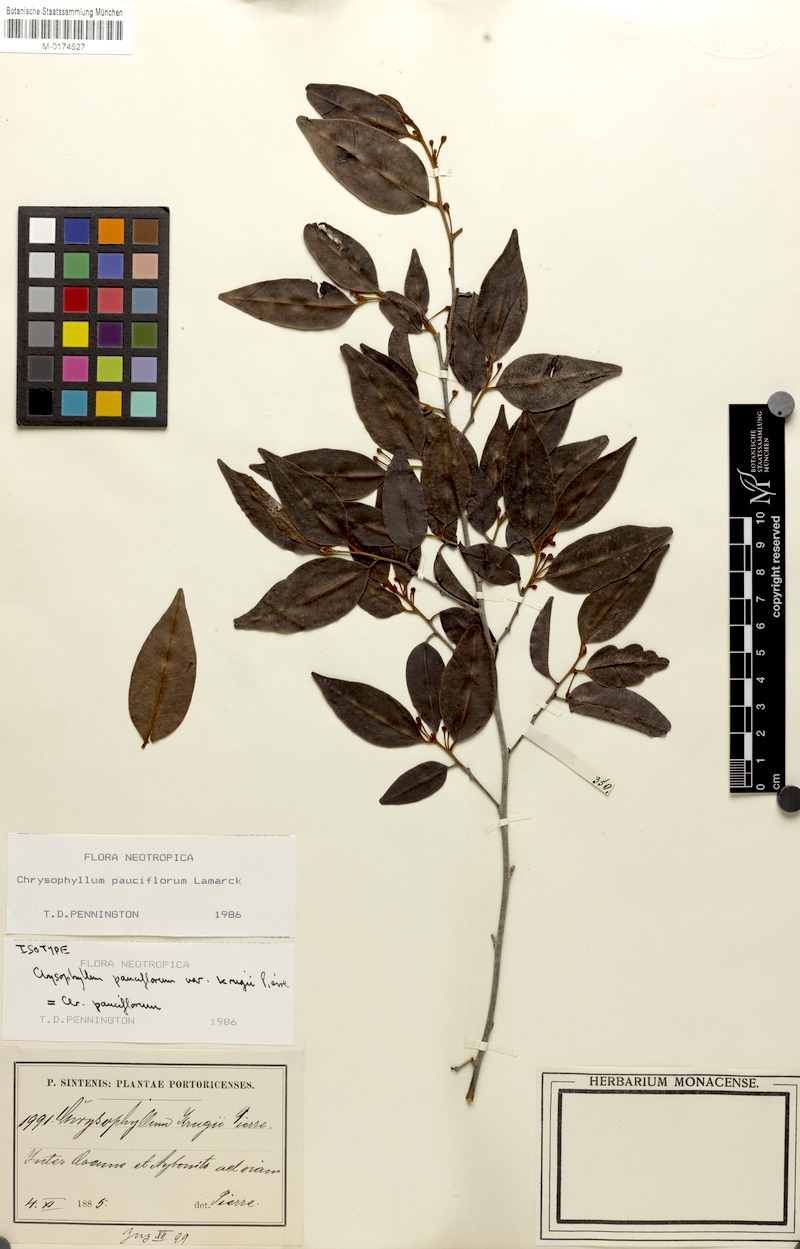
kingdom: Plantae
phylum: Tracheophyta
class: Magnoliopsida
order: Ericales
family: Sapotaceae
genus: Chrysophyllum
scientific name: Chrysophyllum pauciflorum
